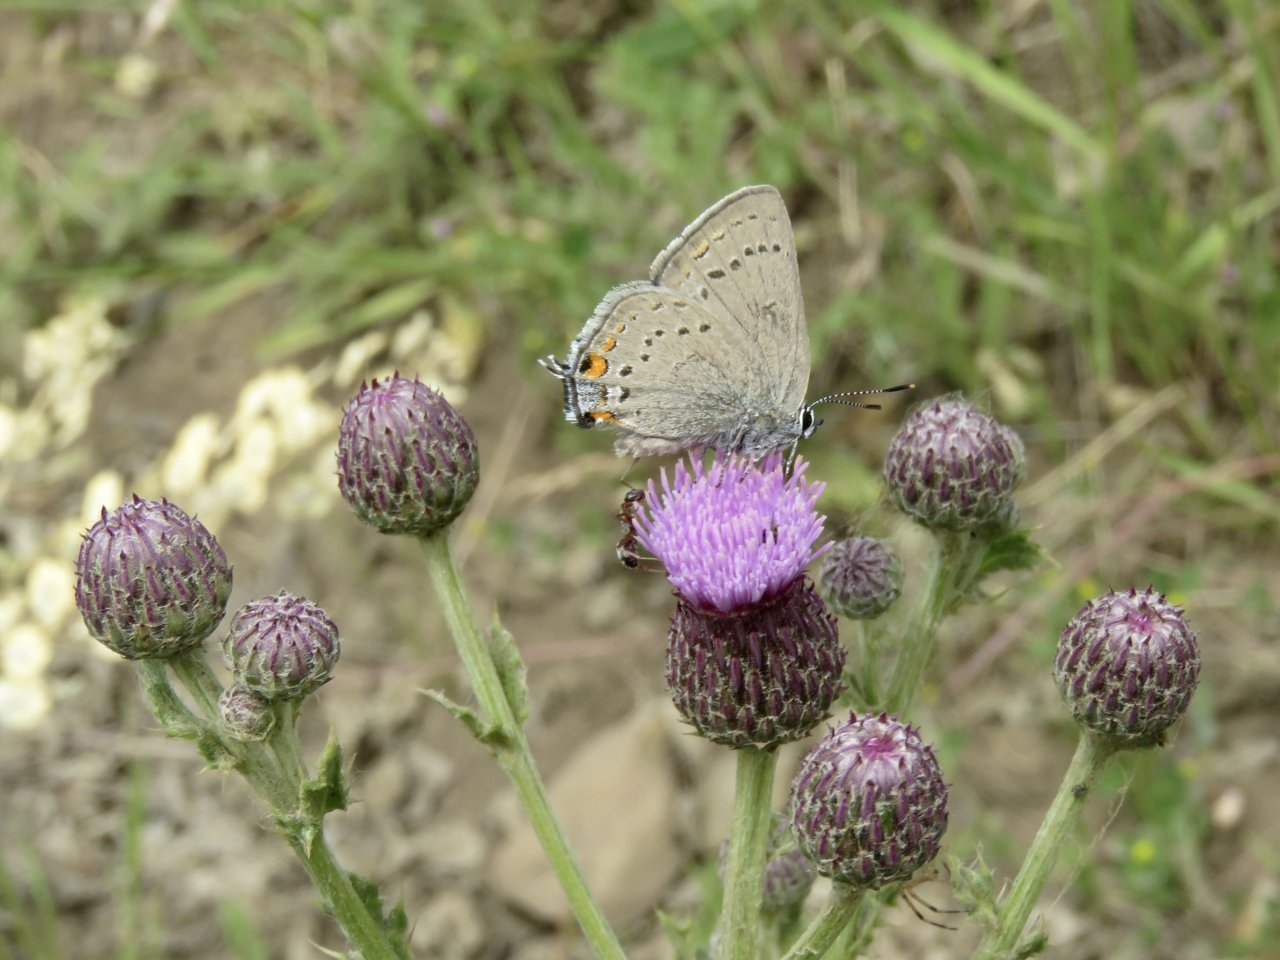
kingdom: Animalia
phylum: Arthropoda
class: Insecta
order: Lepidoptera
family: Lycaenidae
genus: Strymon
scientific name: Strymon acadica
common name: California Hairstreak
